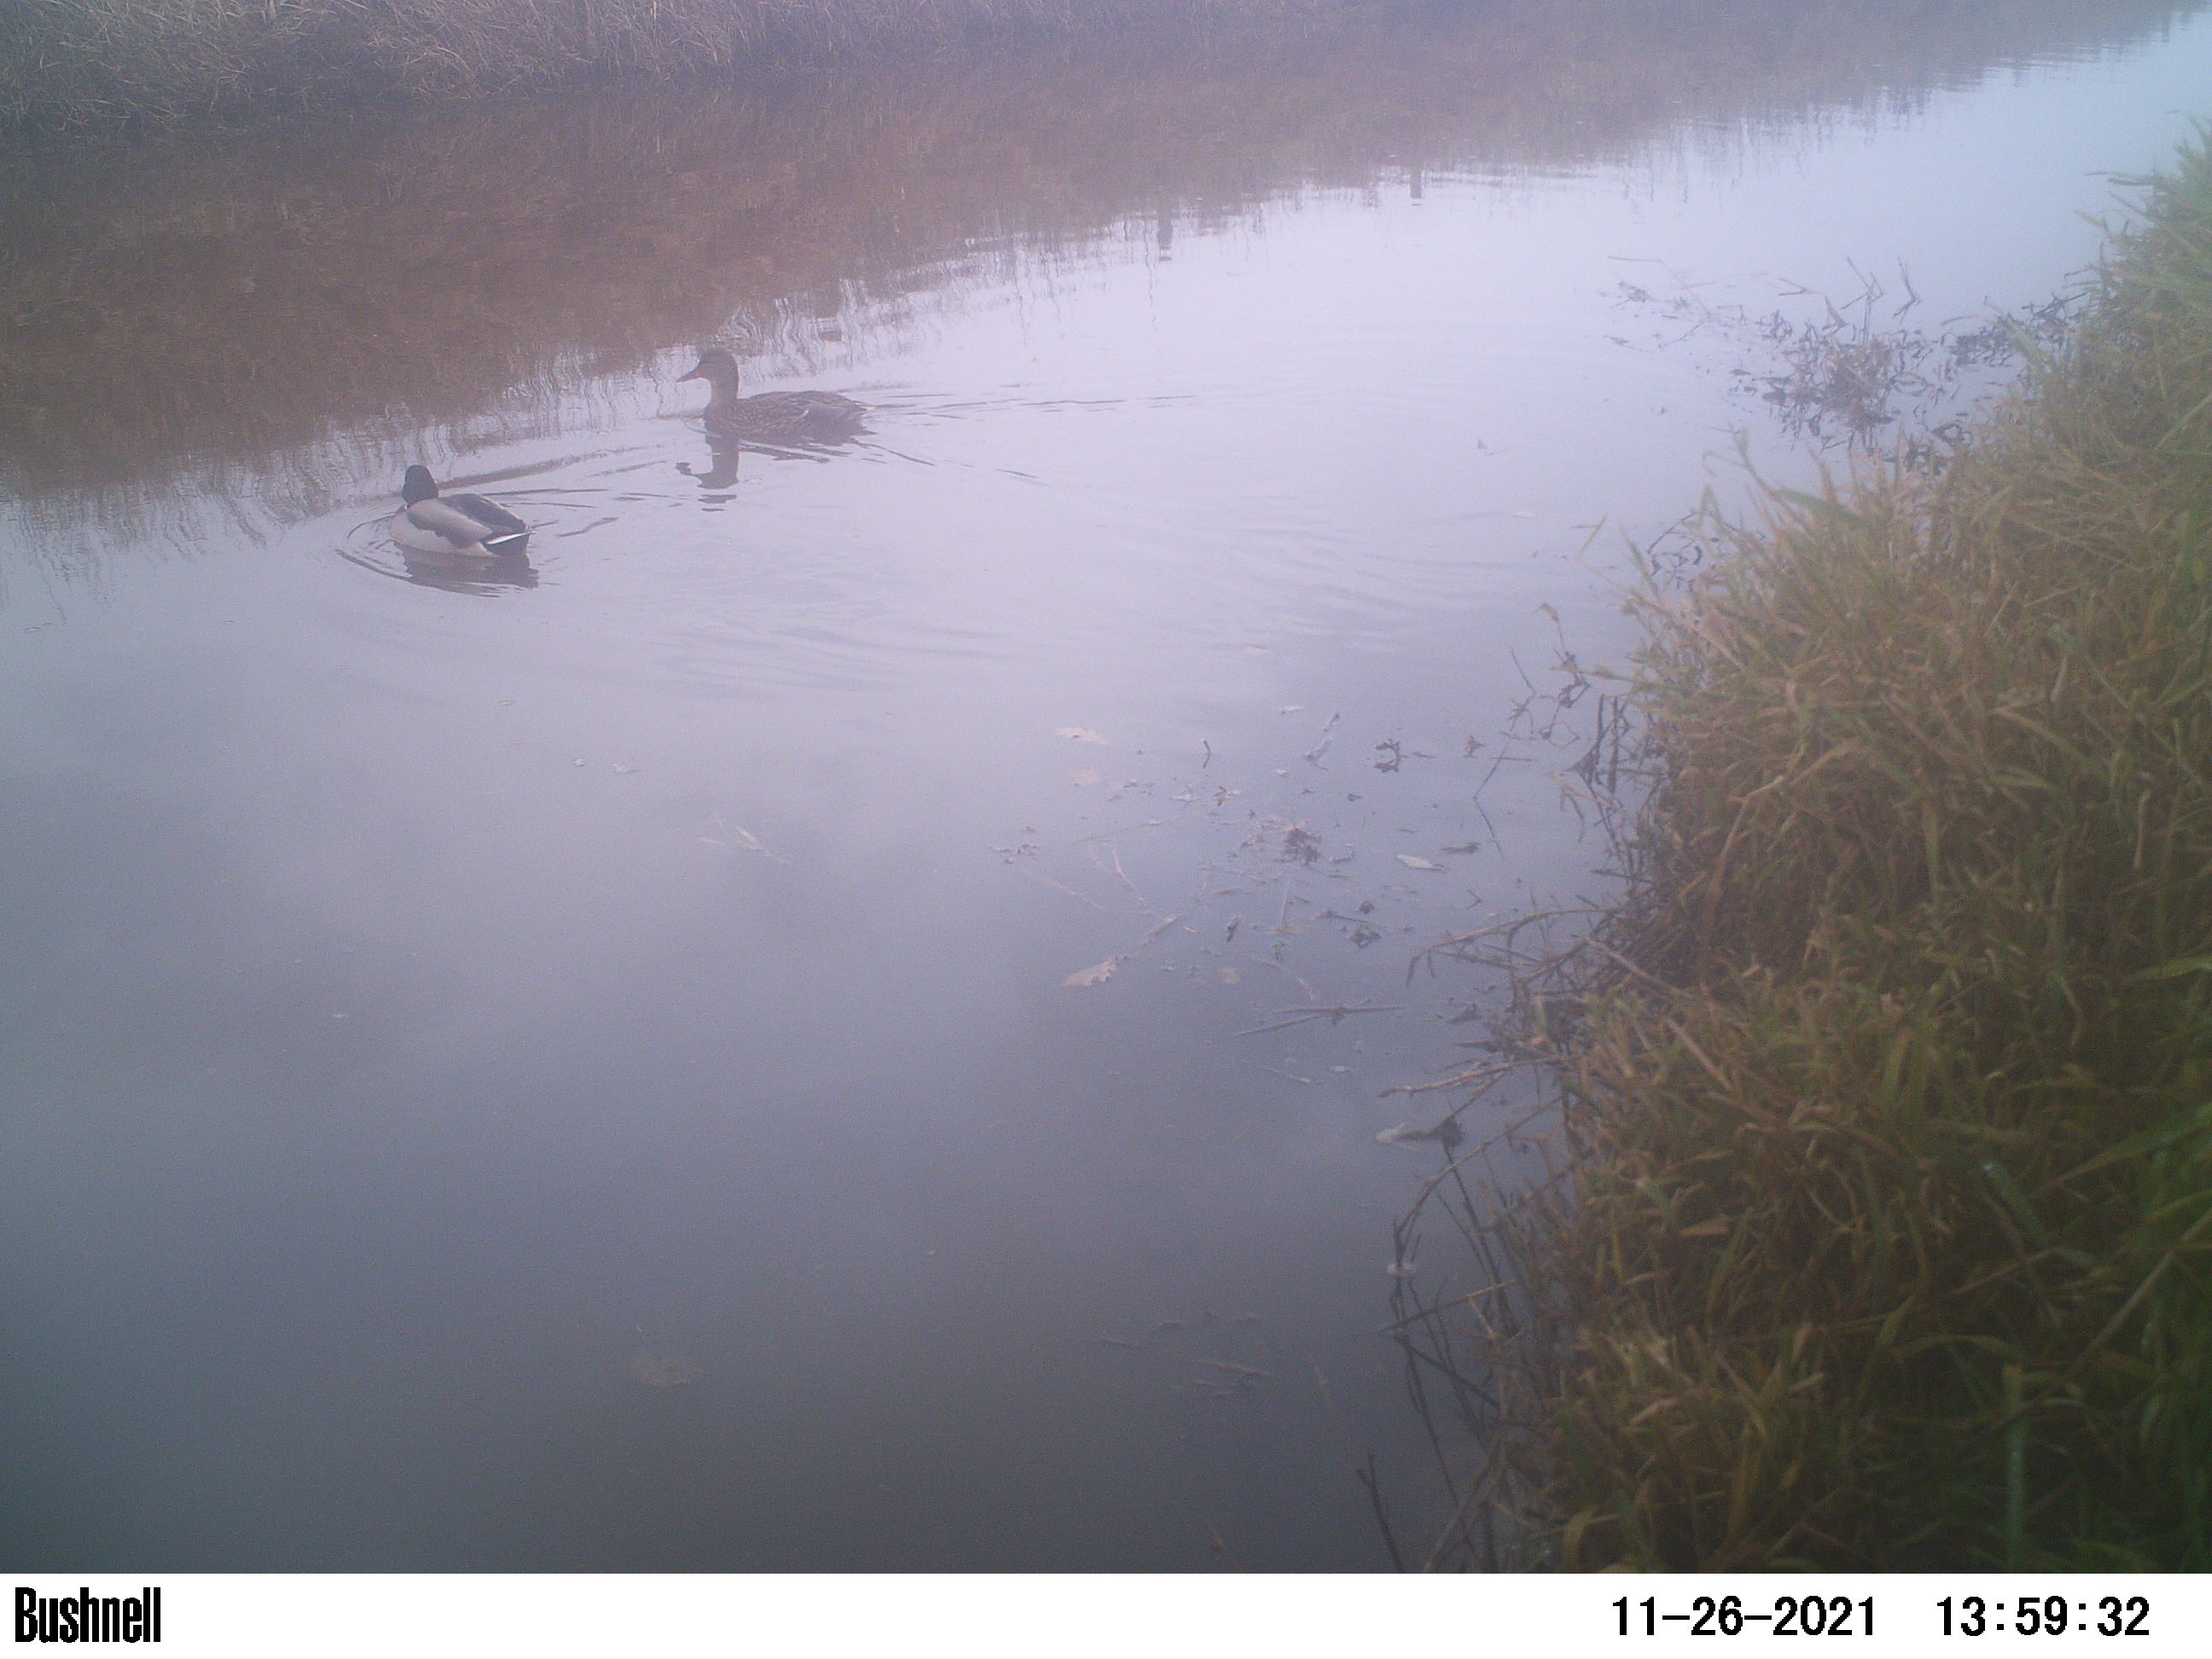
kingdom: Animalia
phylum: Chordata
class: Aves
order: Anseriformes
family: Anatidae
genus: Anas
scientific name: Anas
